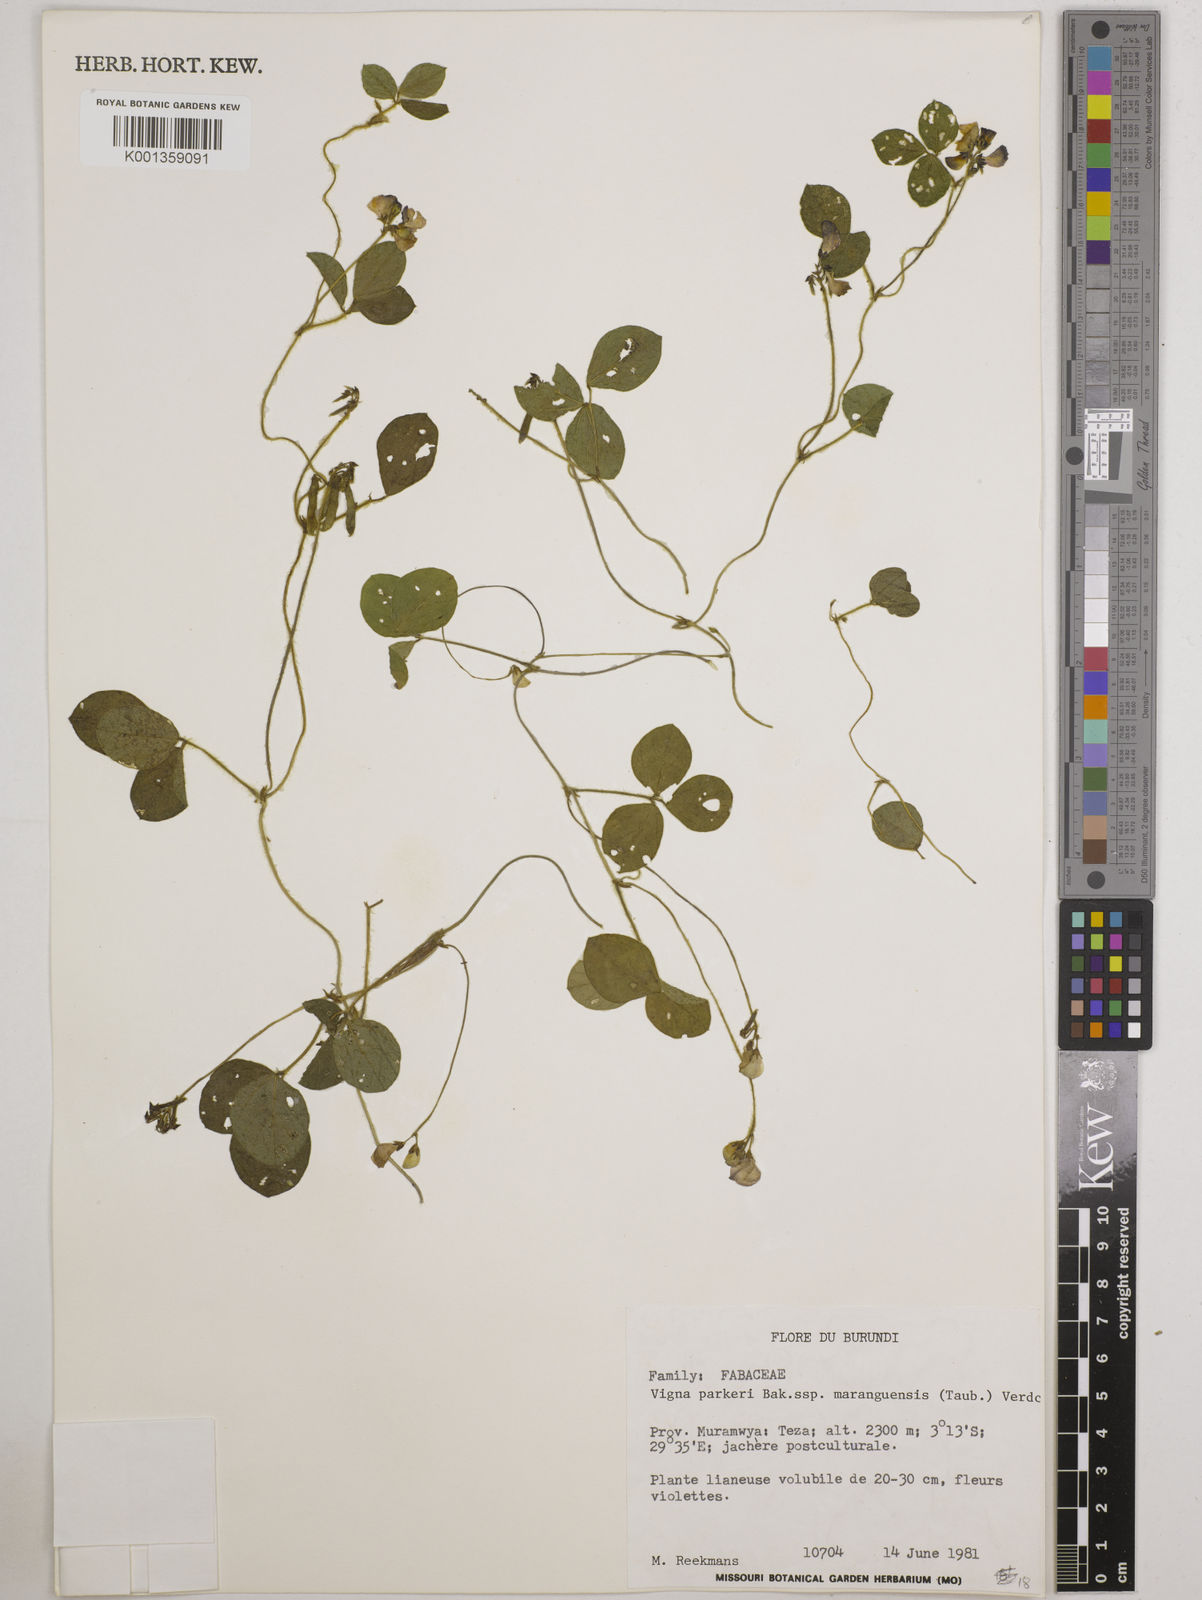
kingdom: Plantae
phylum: Tracheophyta
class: Magnoliopsida
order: Fabales
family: Fabaceae
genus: Vigna
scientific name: Vigna
